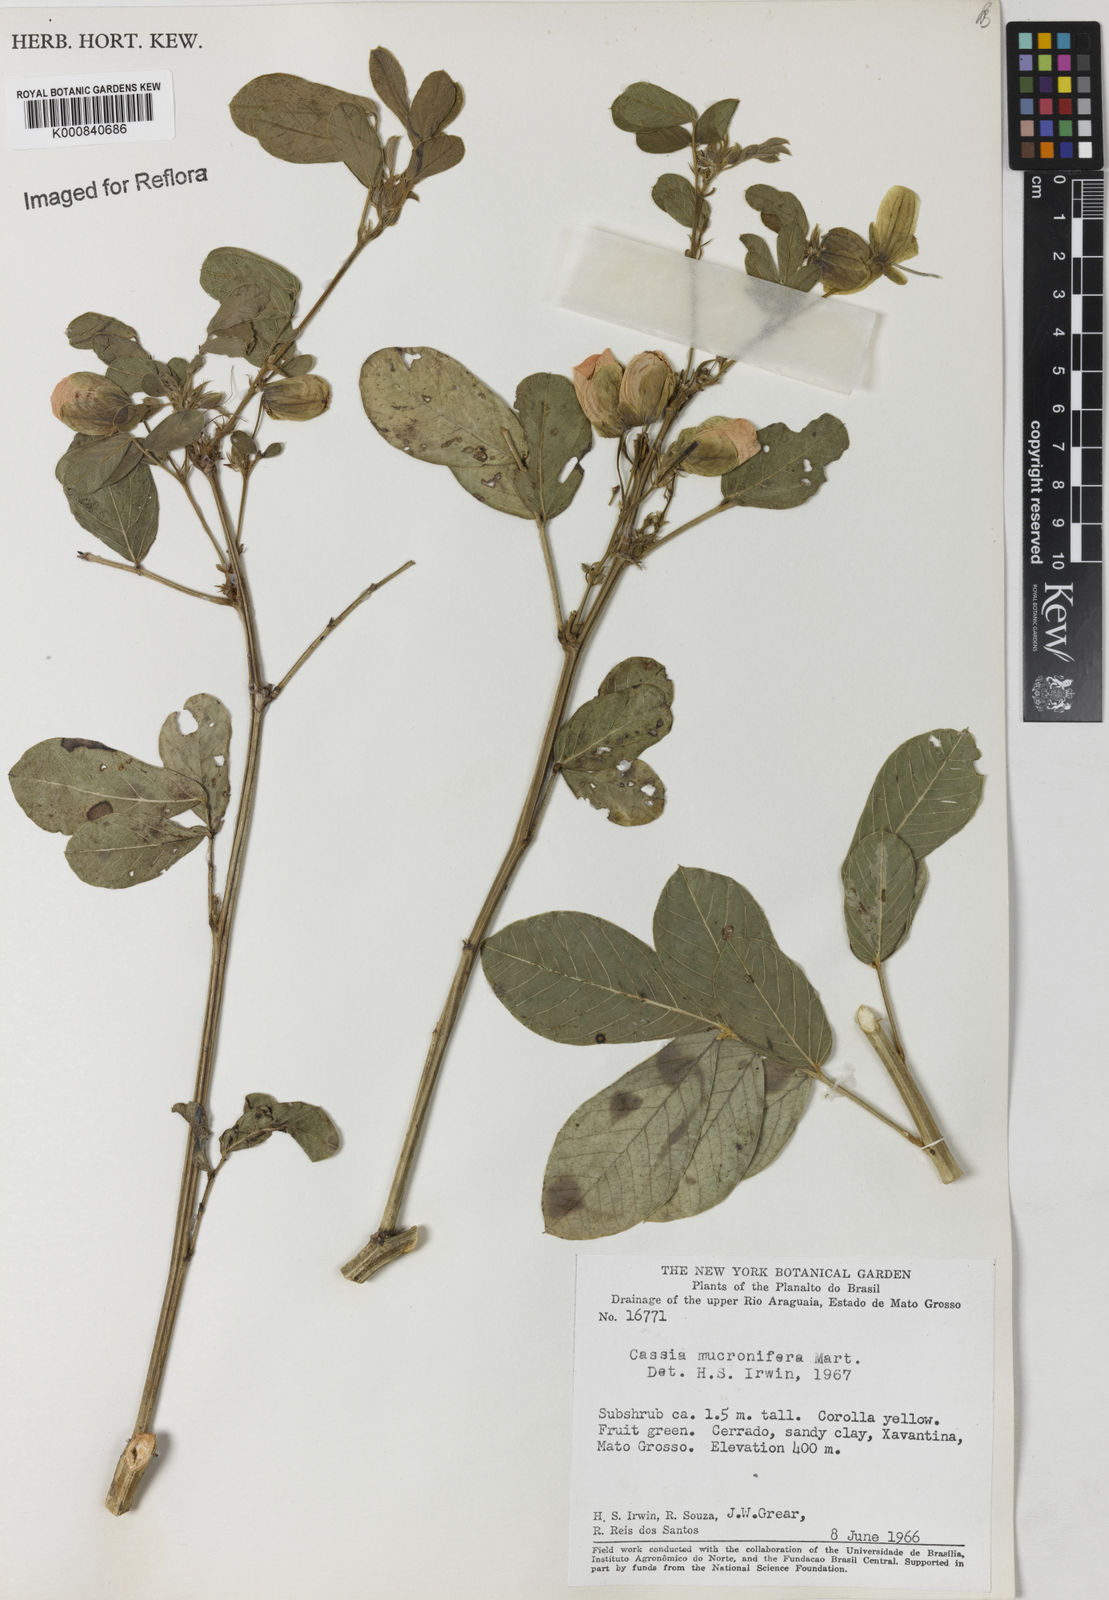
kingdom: Plantae
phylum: Tracheophyta
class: Magnoliopsida
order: Fabales
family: Fabaceae
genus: Senna
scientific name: Senna mucronifera
